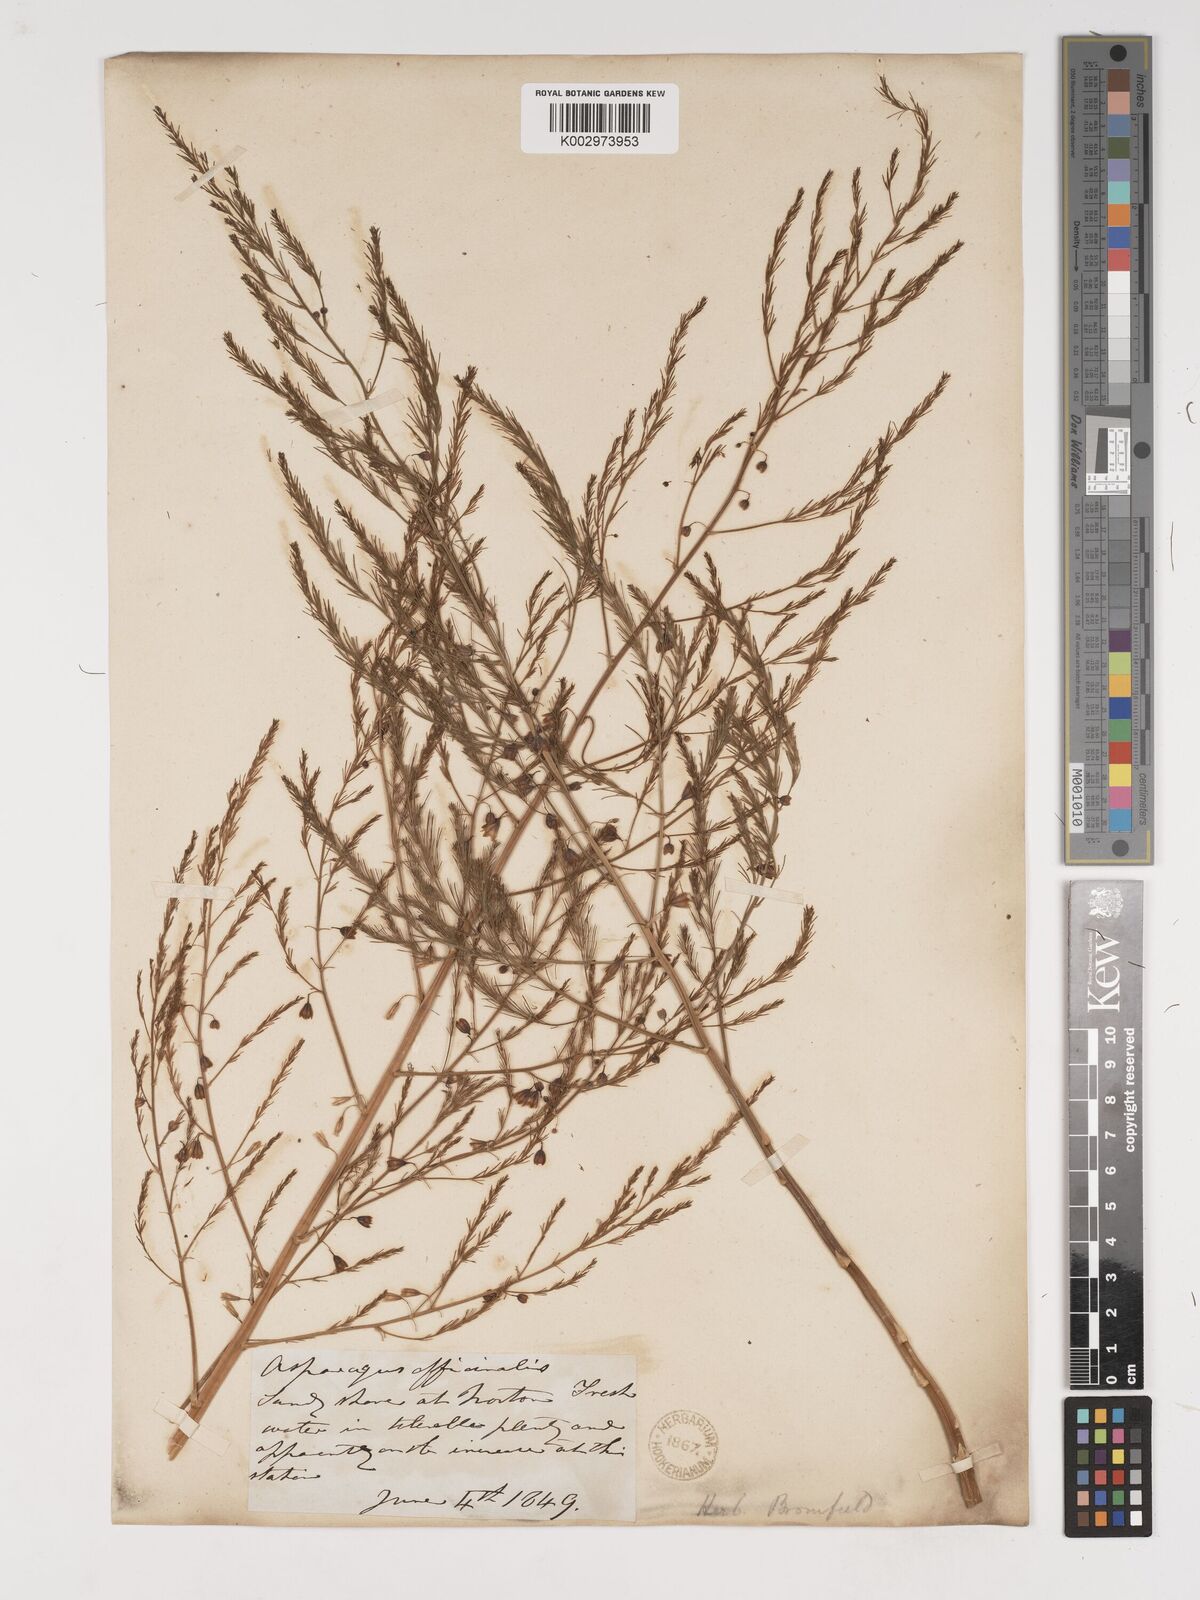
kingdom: Plantae
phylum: Tracheophyta
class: Liliopsida
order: Asparagales
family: Asparagaceae
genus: Asparagus
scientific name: Asparagus officinalis
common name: Garden asparagus
